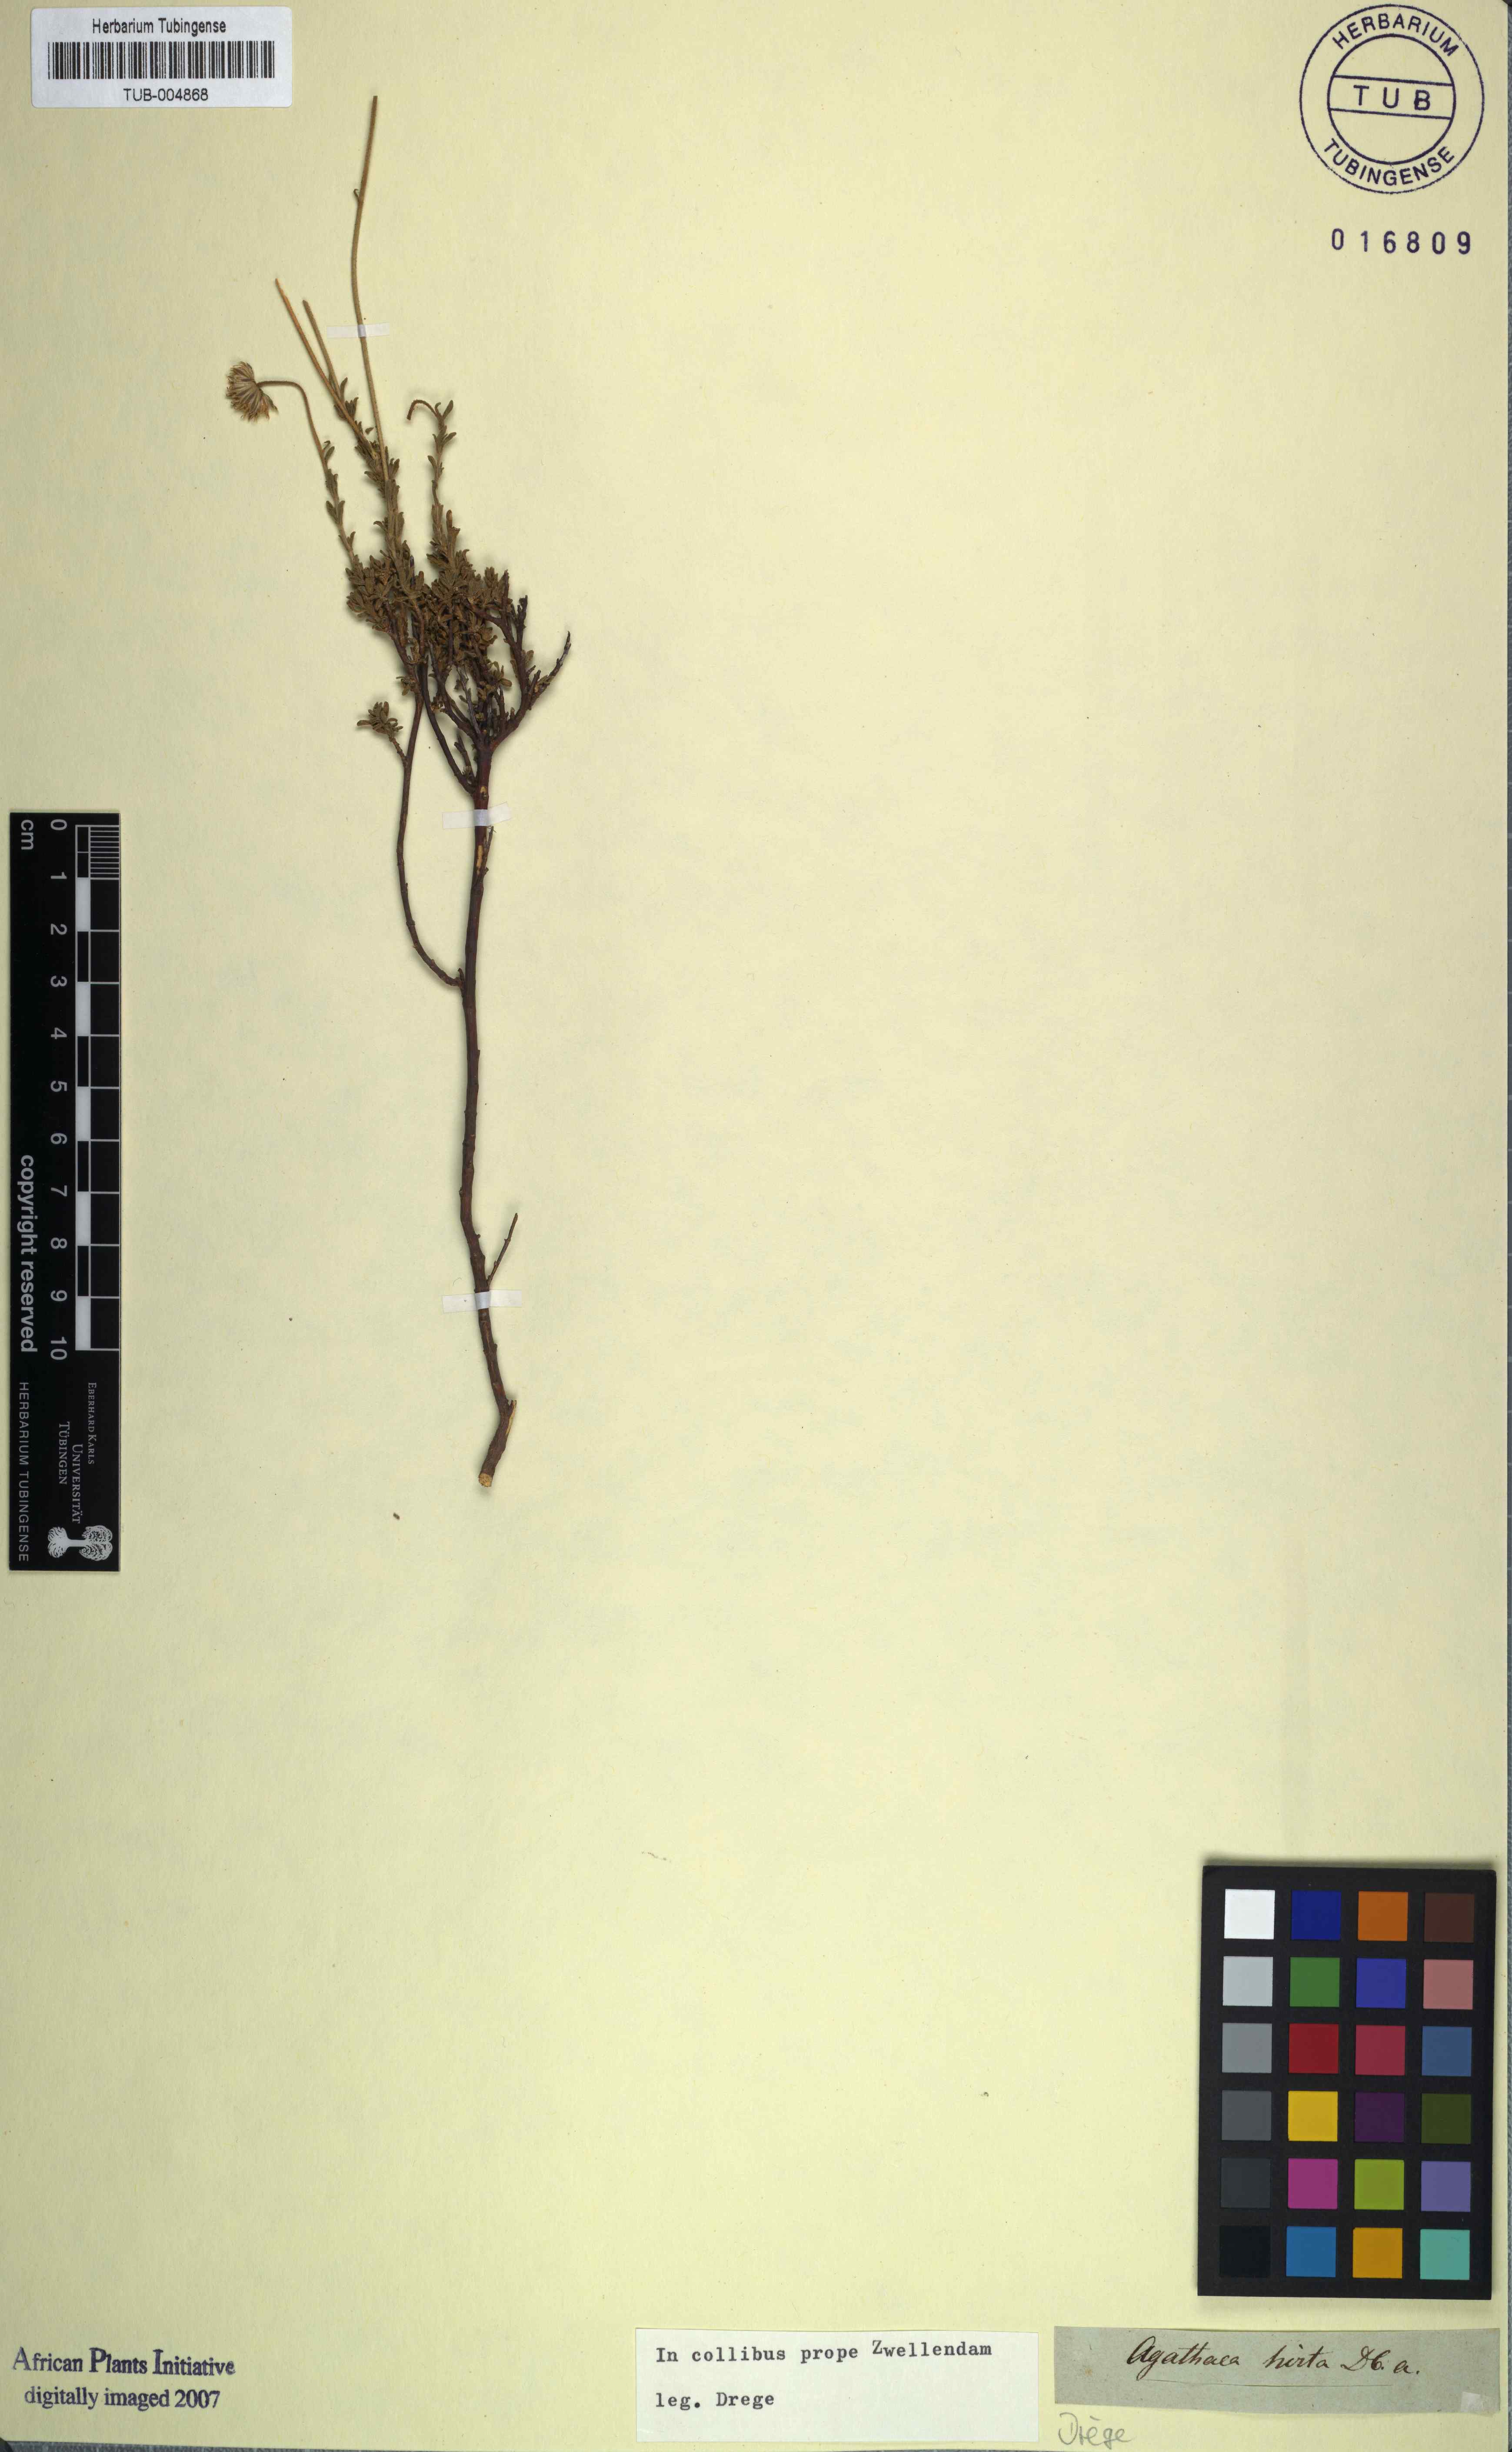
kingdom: Plantae
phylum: Tracheophyta
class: Magnoliopsida
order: Asterales
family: Asteraceae
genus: Felicia
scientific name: Felicia aculeata
